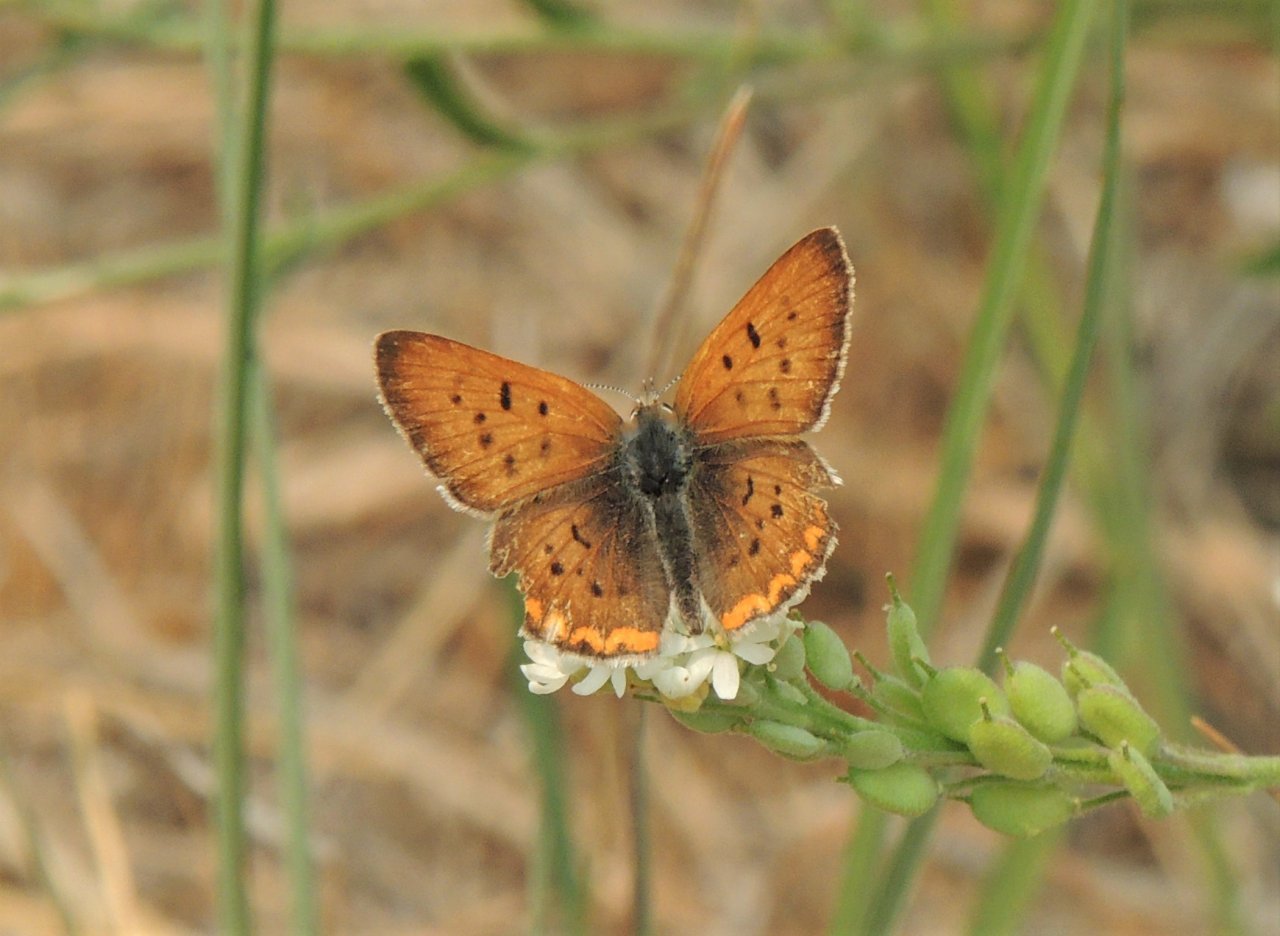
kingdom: Animalia
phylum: Arthropoda
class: Insecta
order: Lepidoptera
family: Sesiidae
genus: Sesia
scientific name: Sesia Lycaena helloides
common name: Purplish Copper
